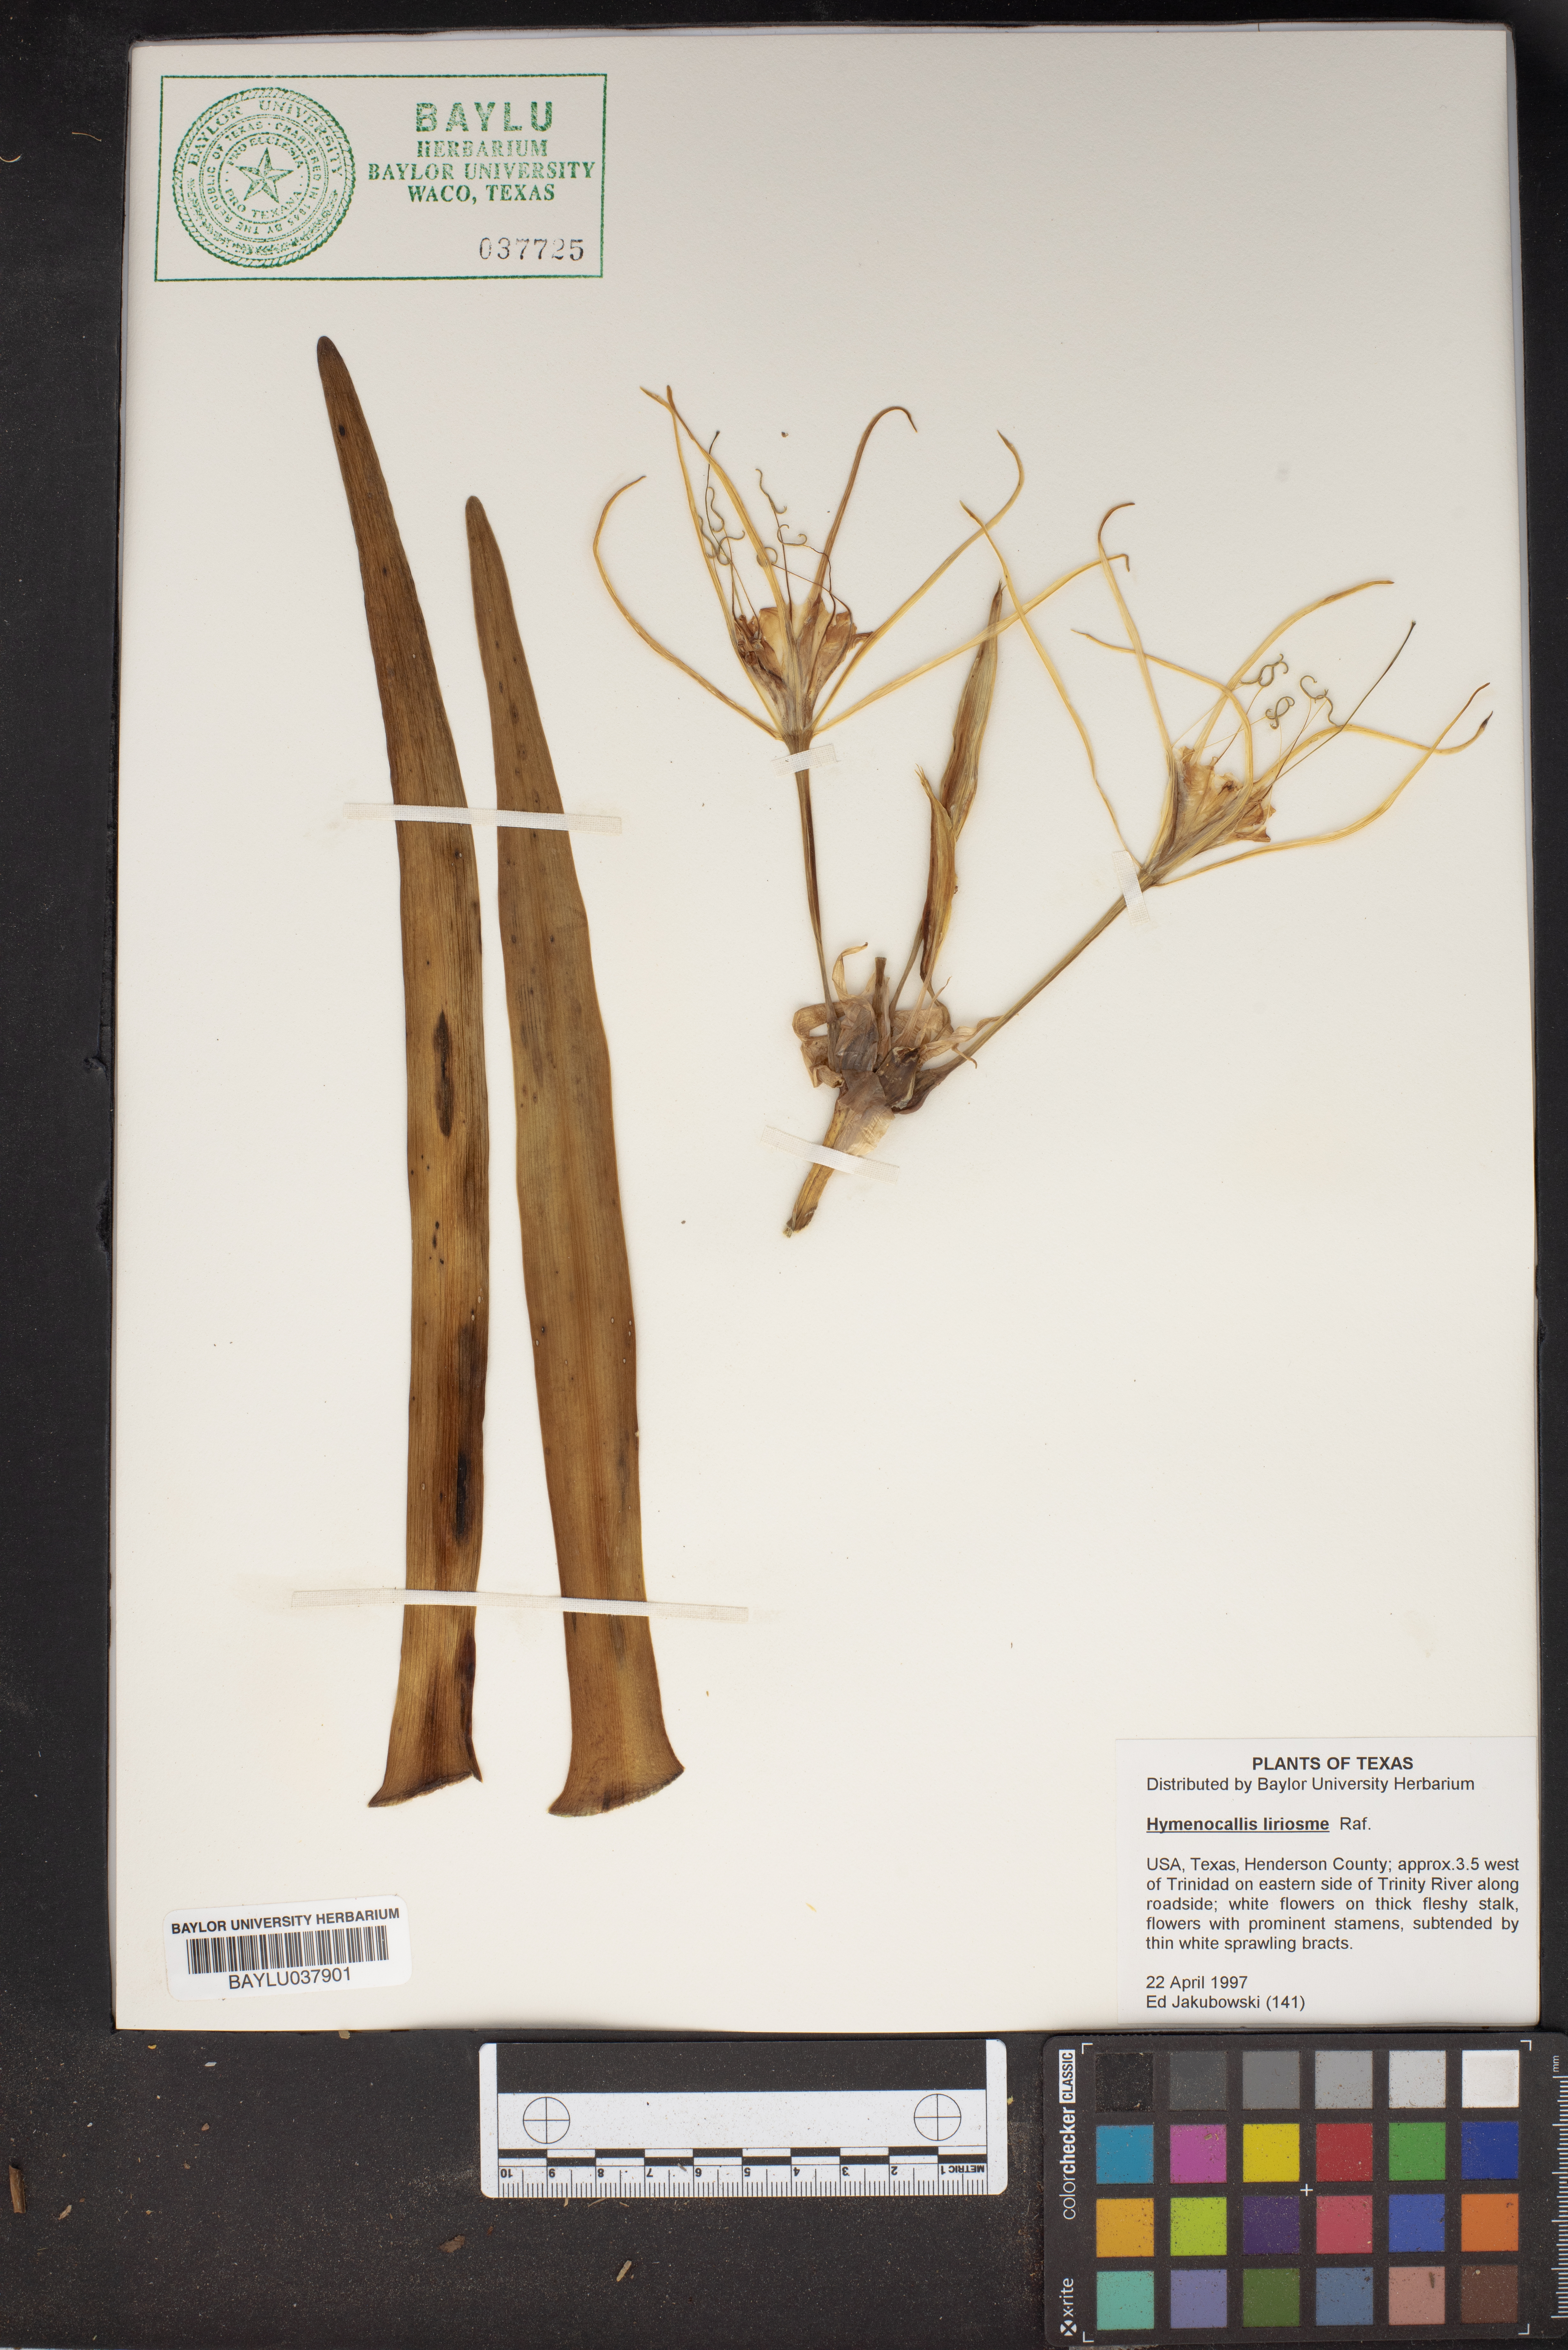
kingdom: Plantae
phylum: Tracheophyta
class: Liliopsida
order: Asparagales
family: Amaryllidaceae
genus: Hymenocallis
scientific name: Hymenocallis liriosme
